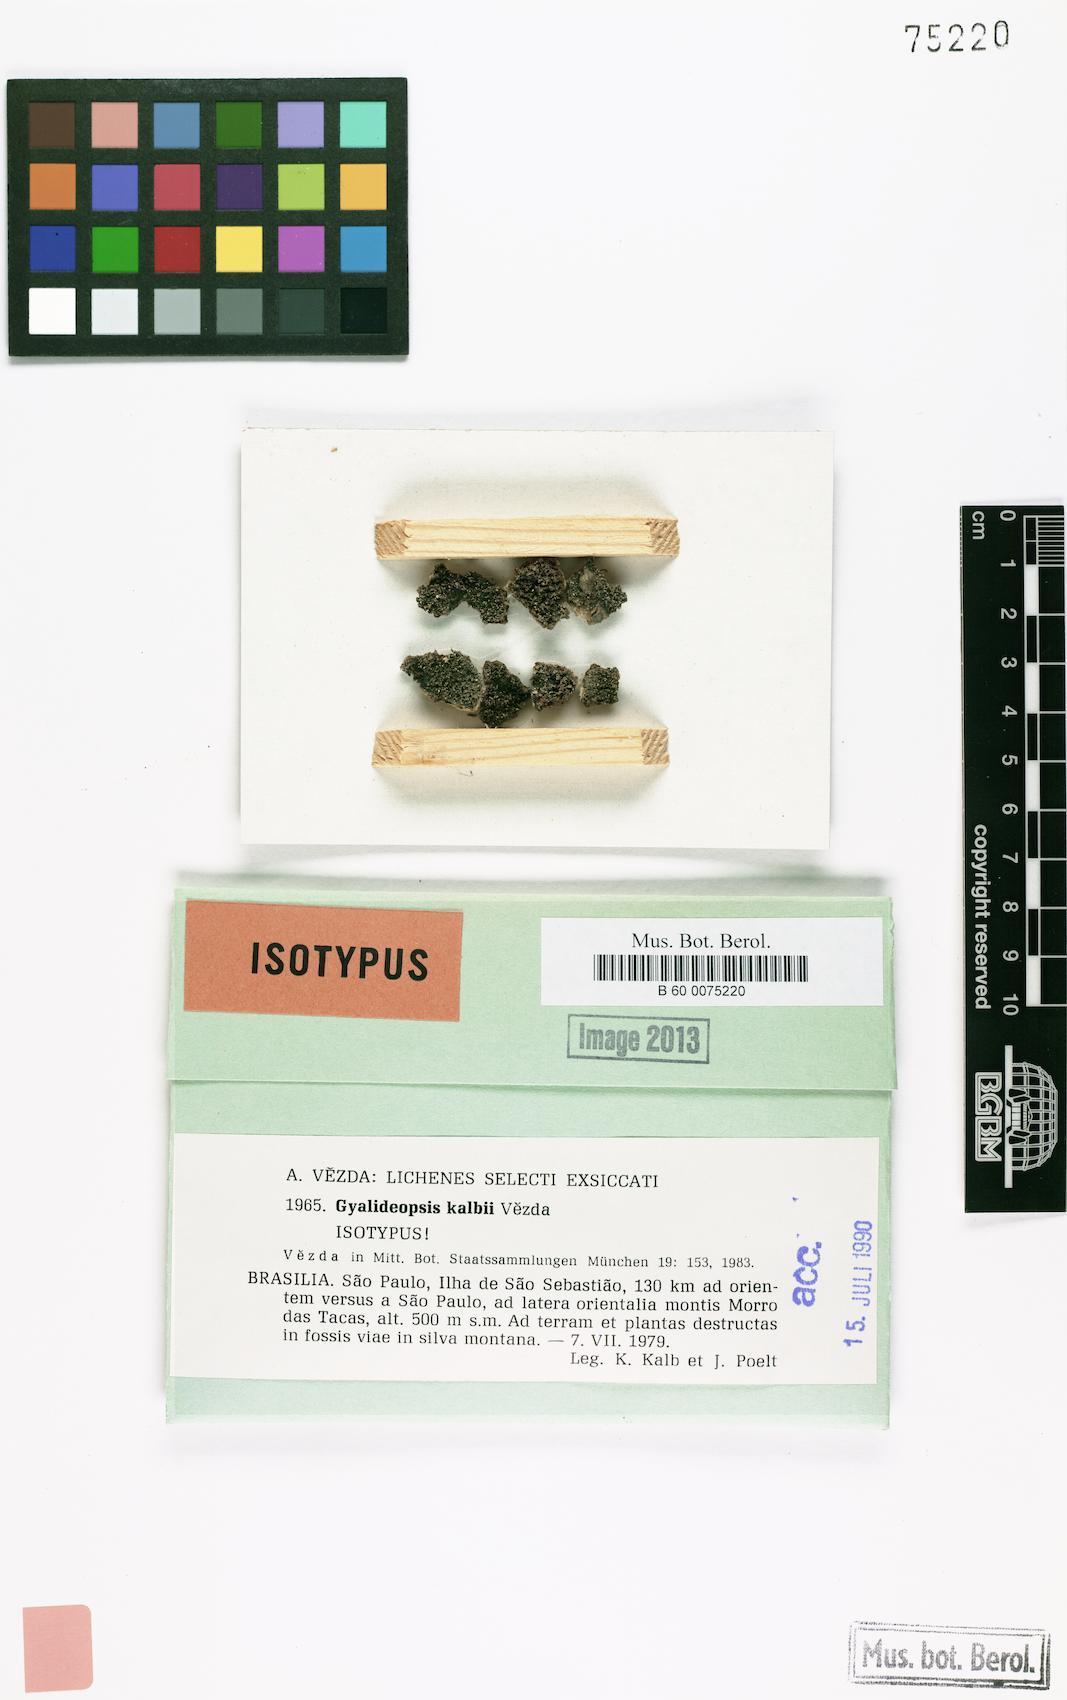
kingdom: Fungi
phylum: Ascomycota
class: Lecanoromycetes
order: Ostropales
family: Gomphillaceae
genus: Gyalideopsis
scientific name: Gyalideopsis kalbii
